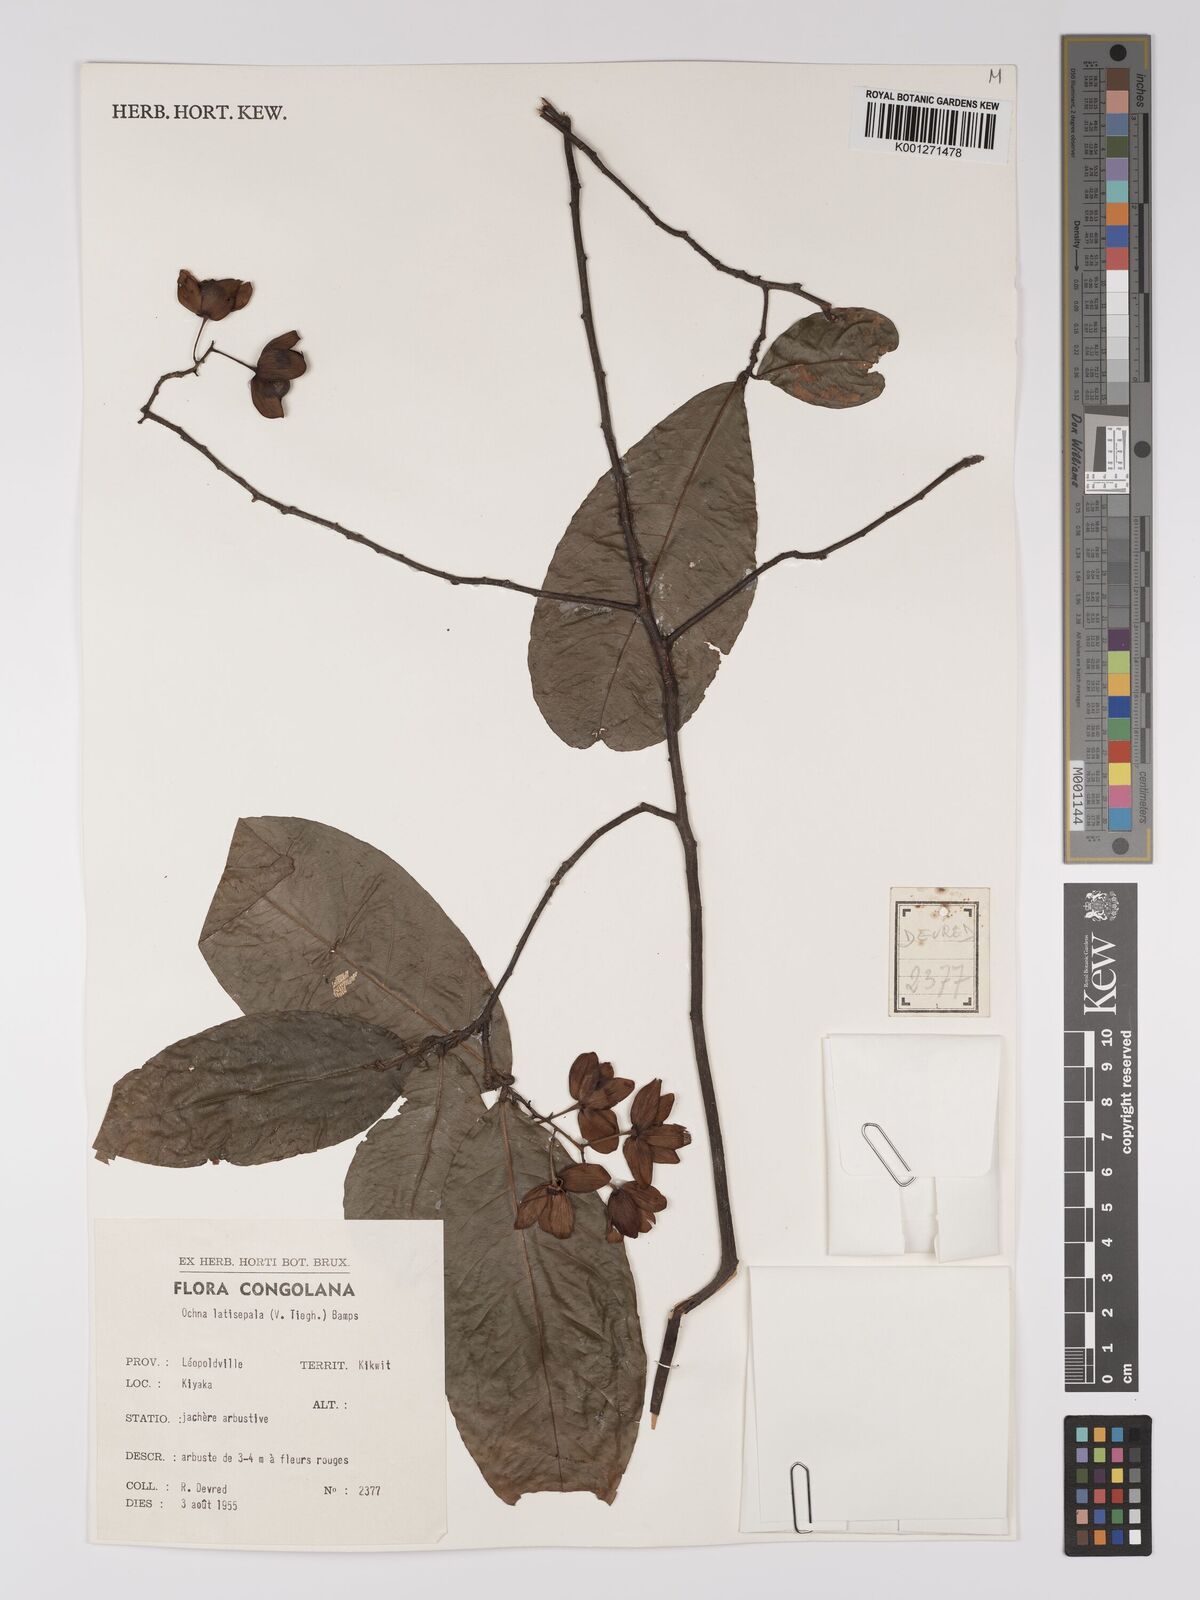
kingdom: Plantae
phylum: Tracheophyta
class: Magnoliopsida
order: Malpighiales
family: Ochnaceae
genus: Ochna
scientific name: Ochna latisepala
